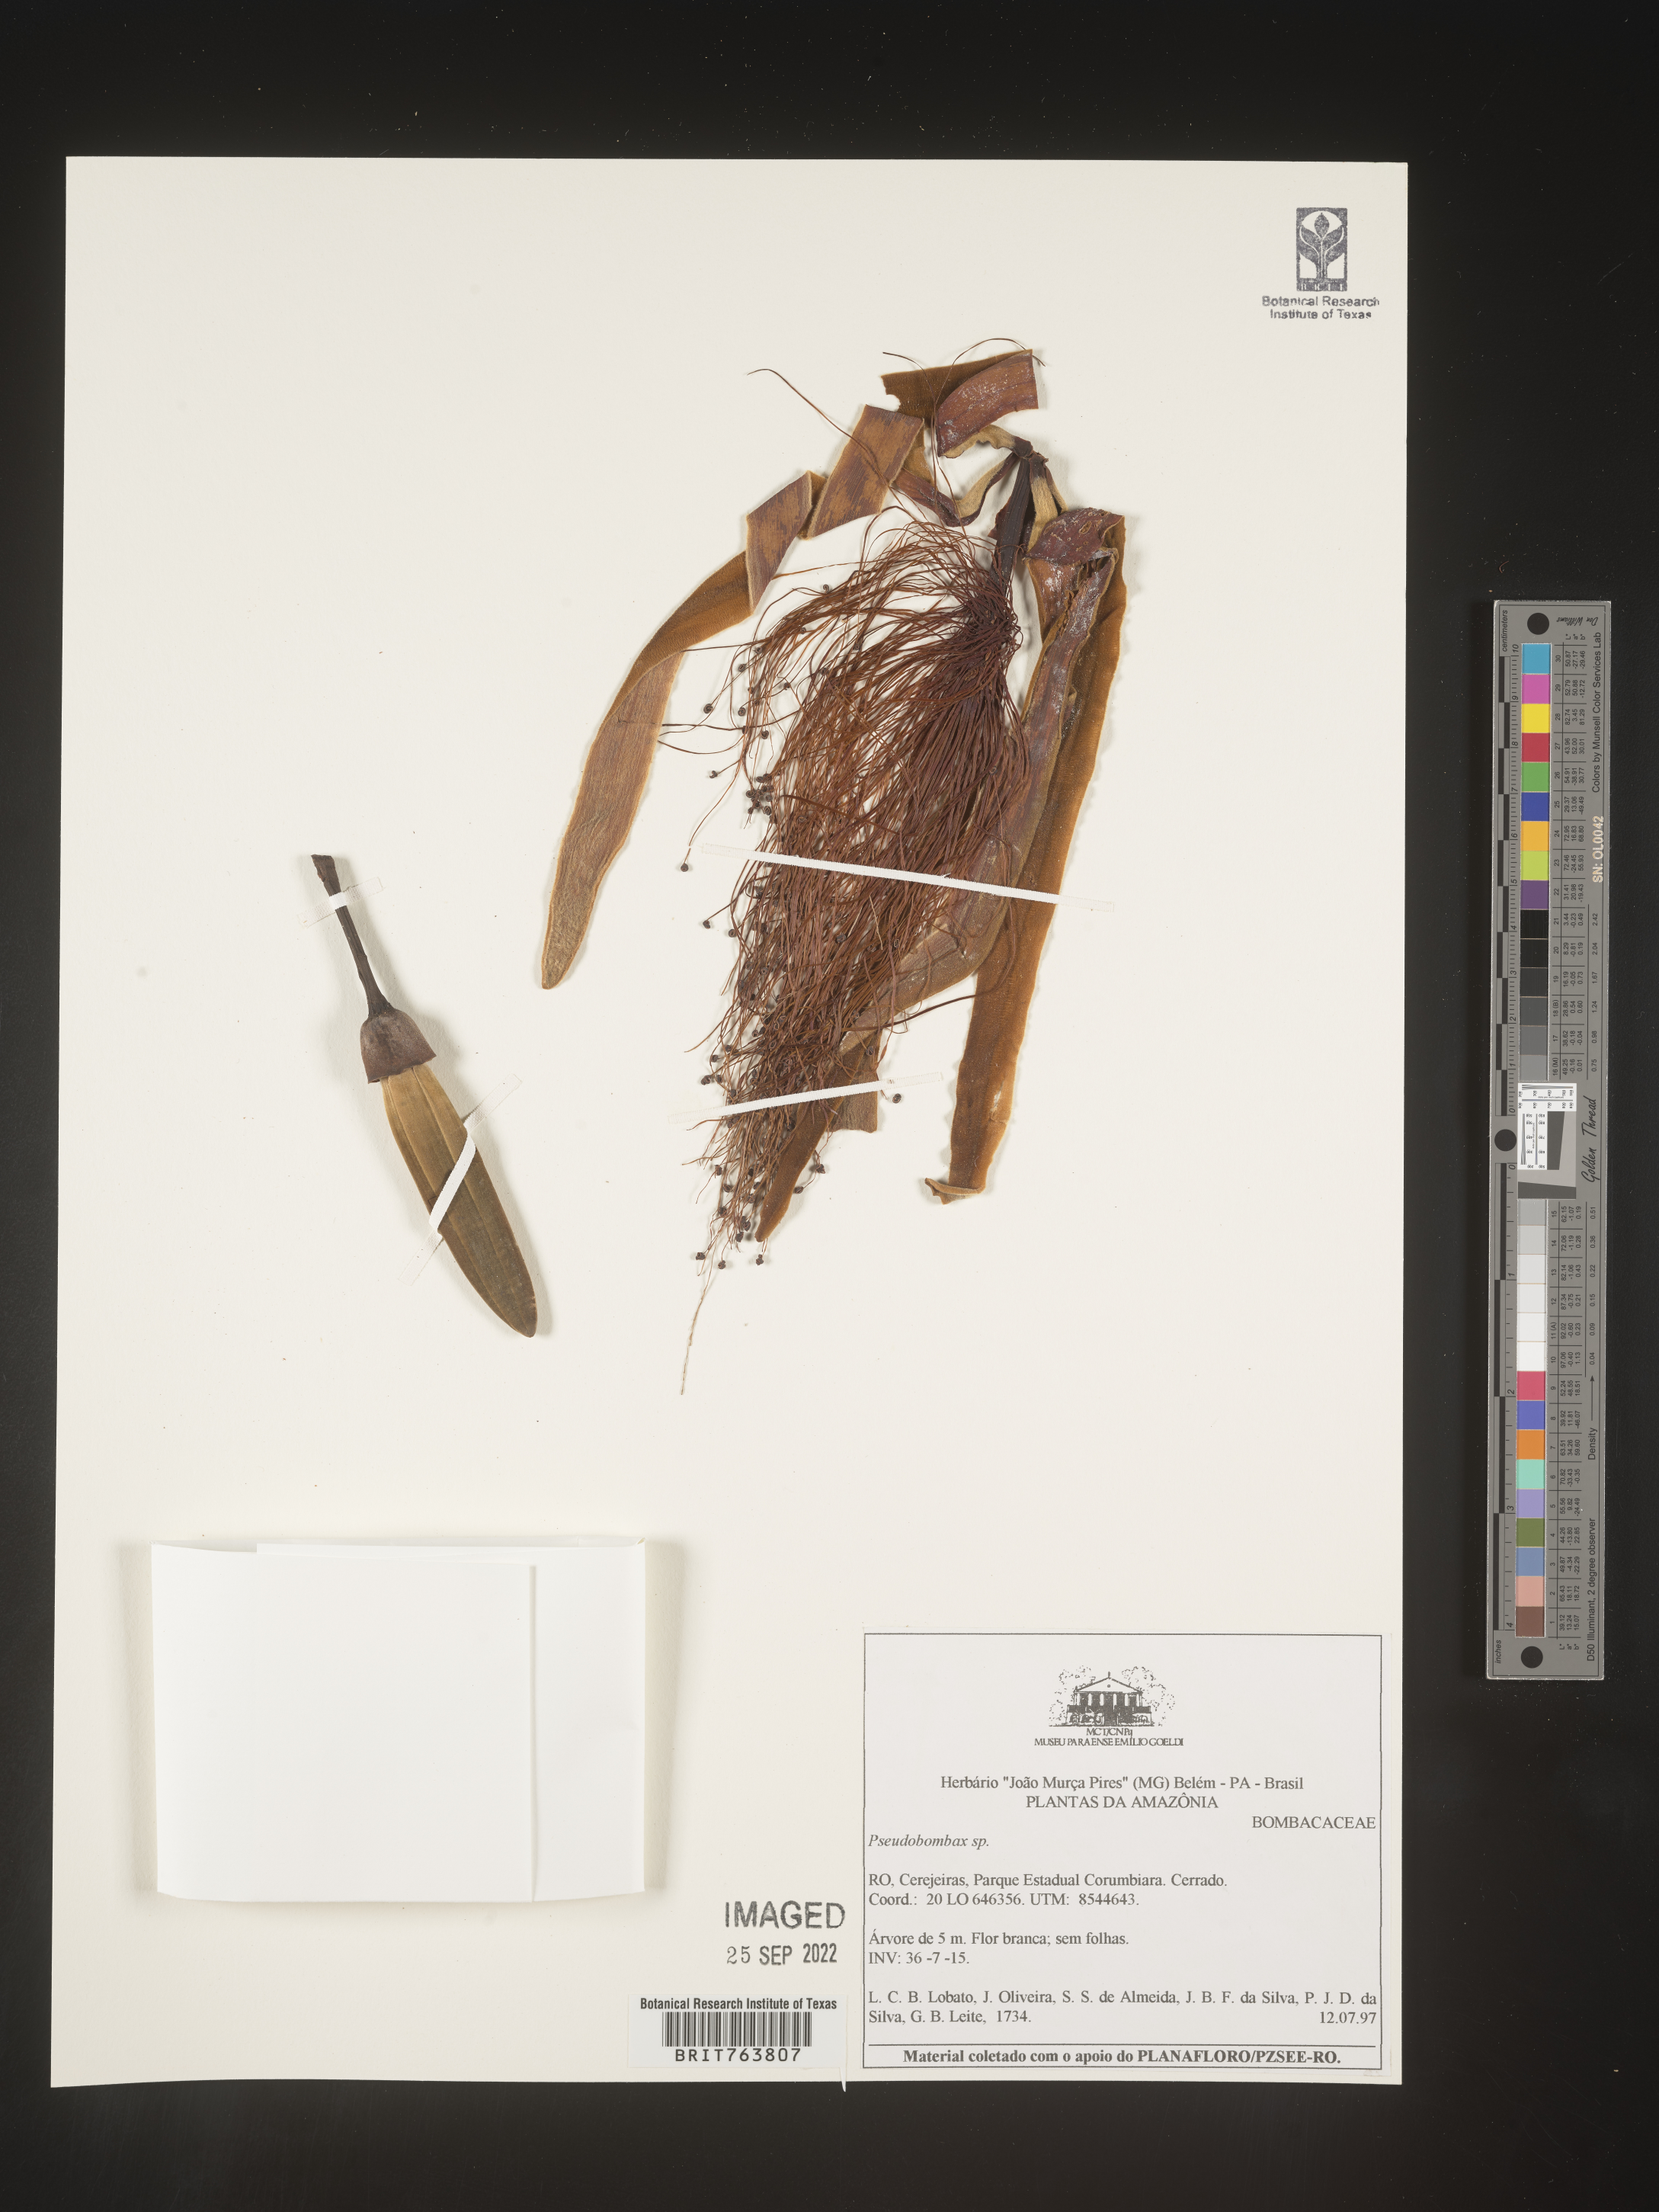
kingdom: Plantae
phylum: Tracheophyta
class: Magnoliopsida
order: Malvales
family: Malvaceae
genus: Pseudobombax
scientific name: Pseudobombax
